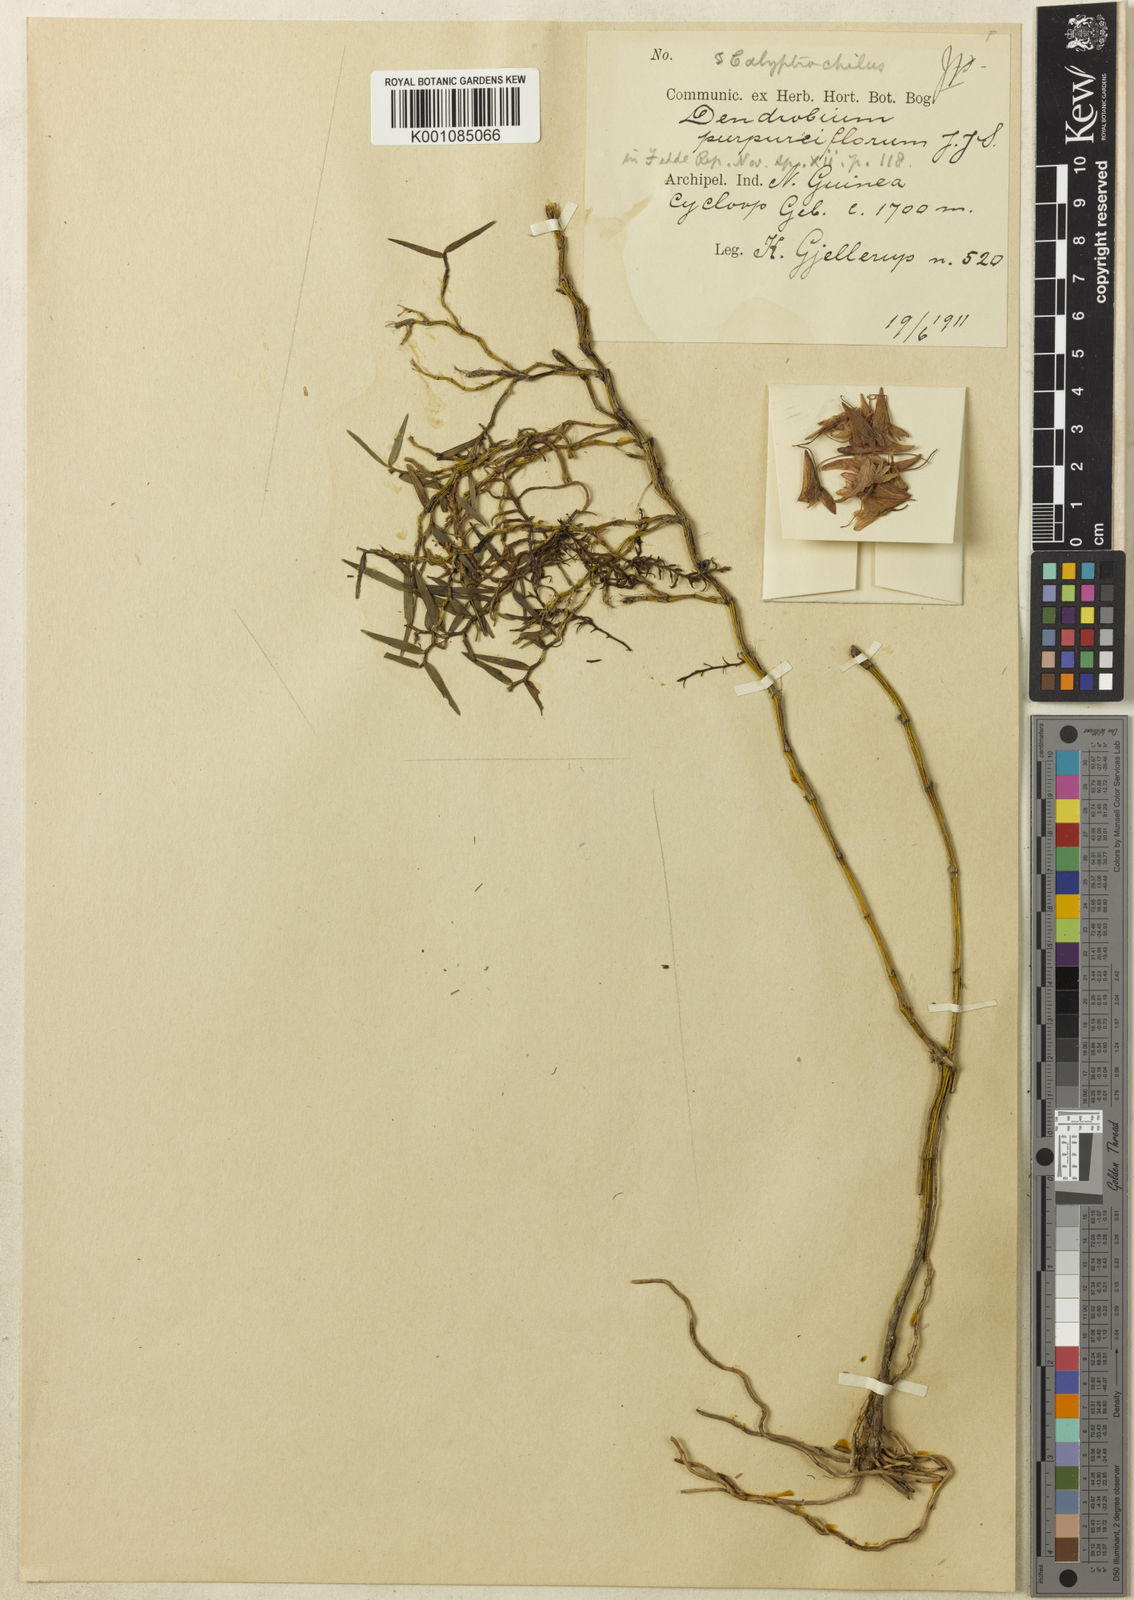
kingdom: Plantae
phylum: Tracheophyta
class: Liliopsida
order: Asparagales
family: Orchidaceae
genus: Dendrobium
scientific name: Dendrobium purpureiflorum
